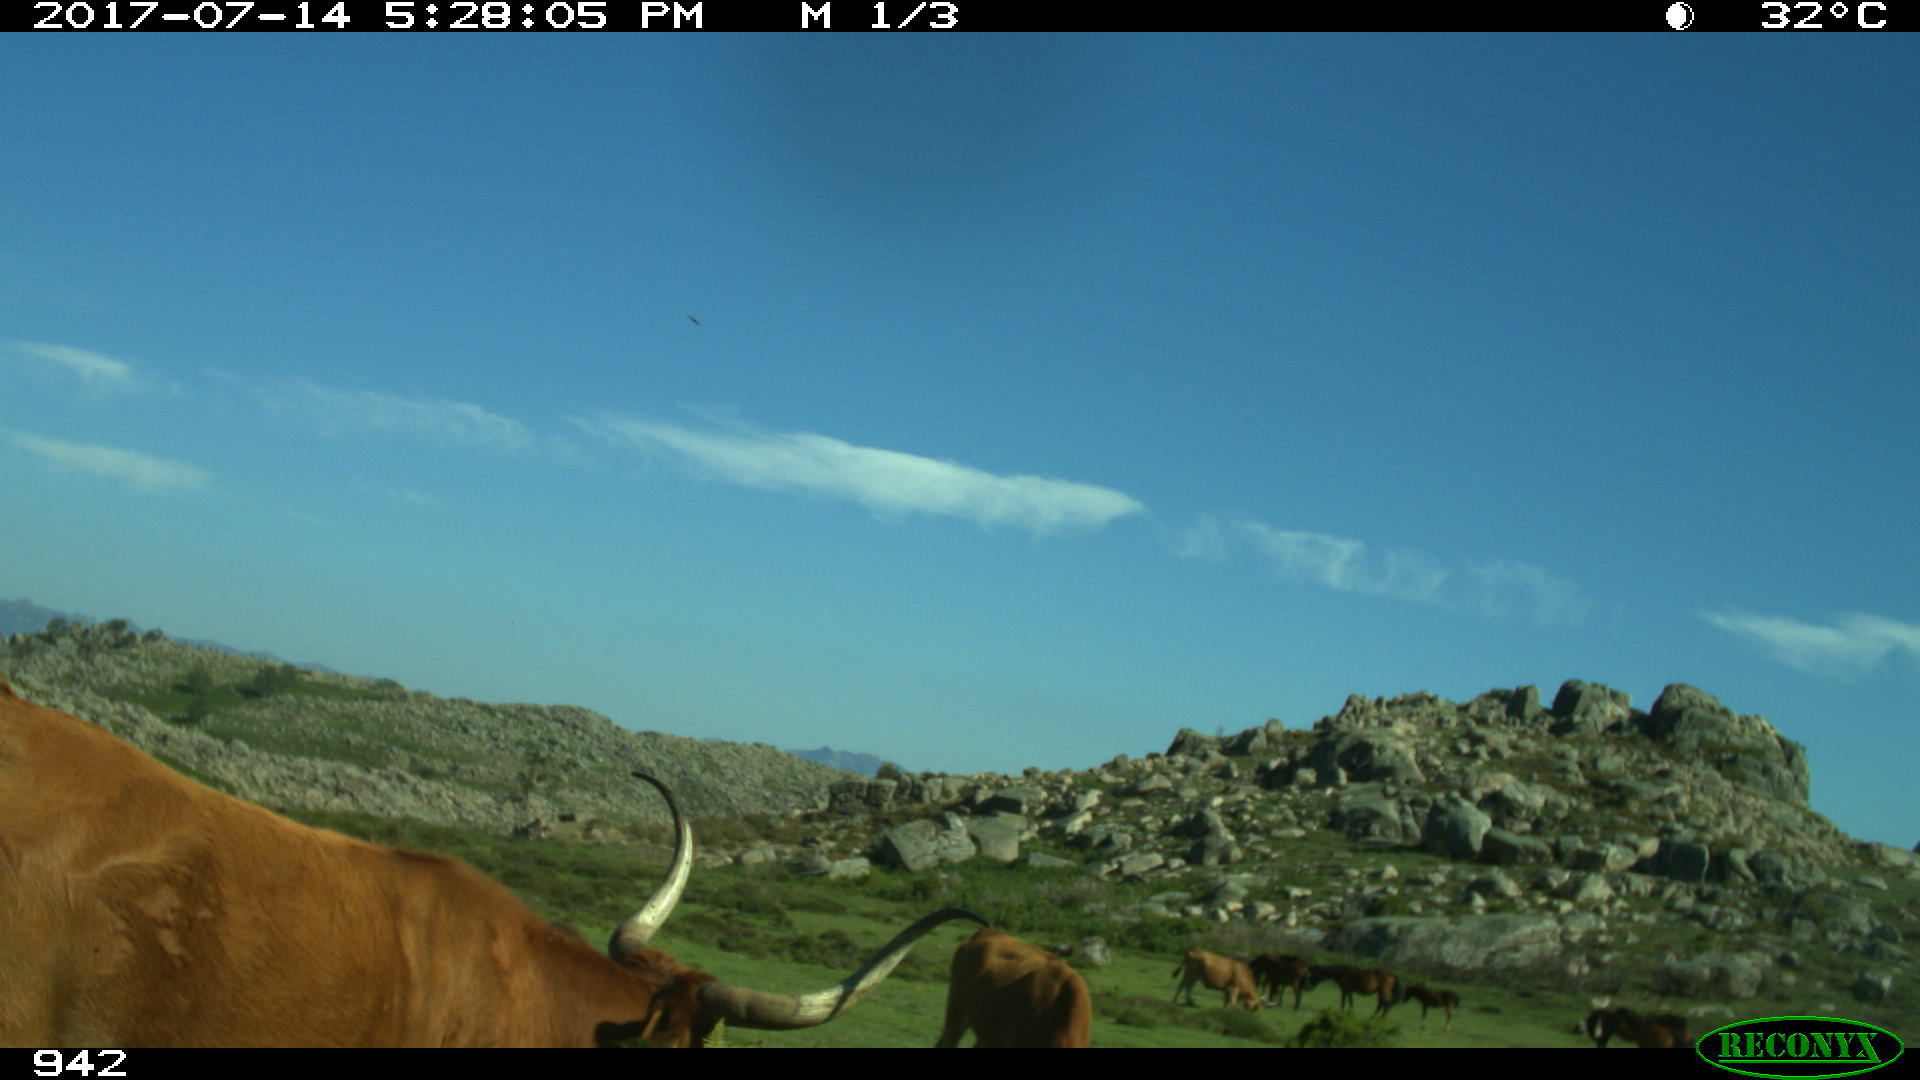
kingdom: Animalia
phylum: Chordata
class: Mammalia
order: Artiodactyla
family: Bovidae
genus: Bos
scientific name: Bos taurus
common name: Domesticated cattle
